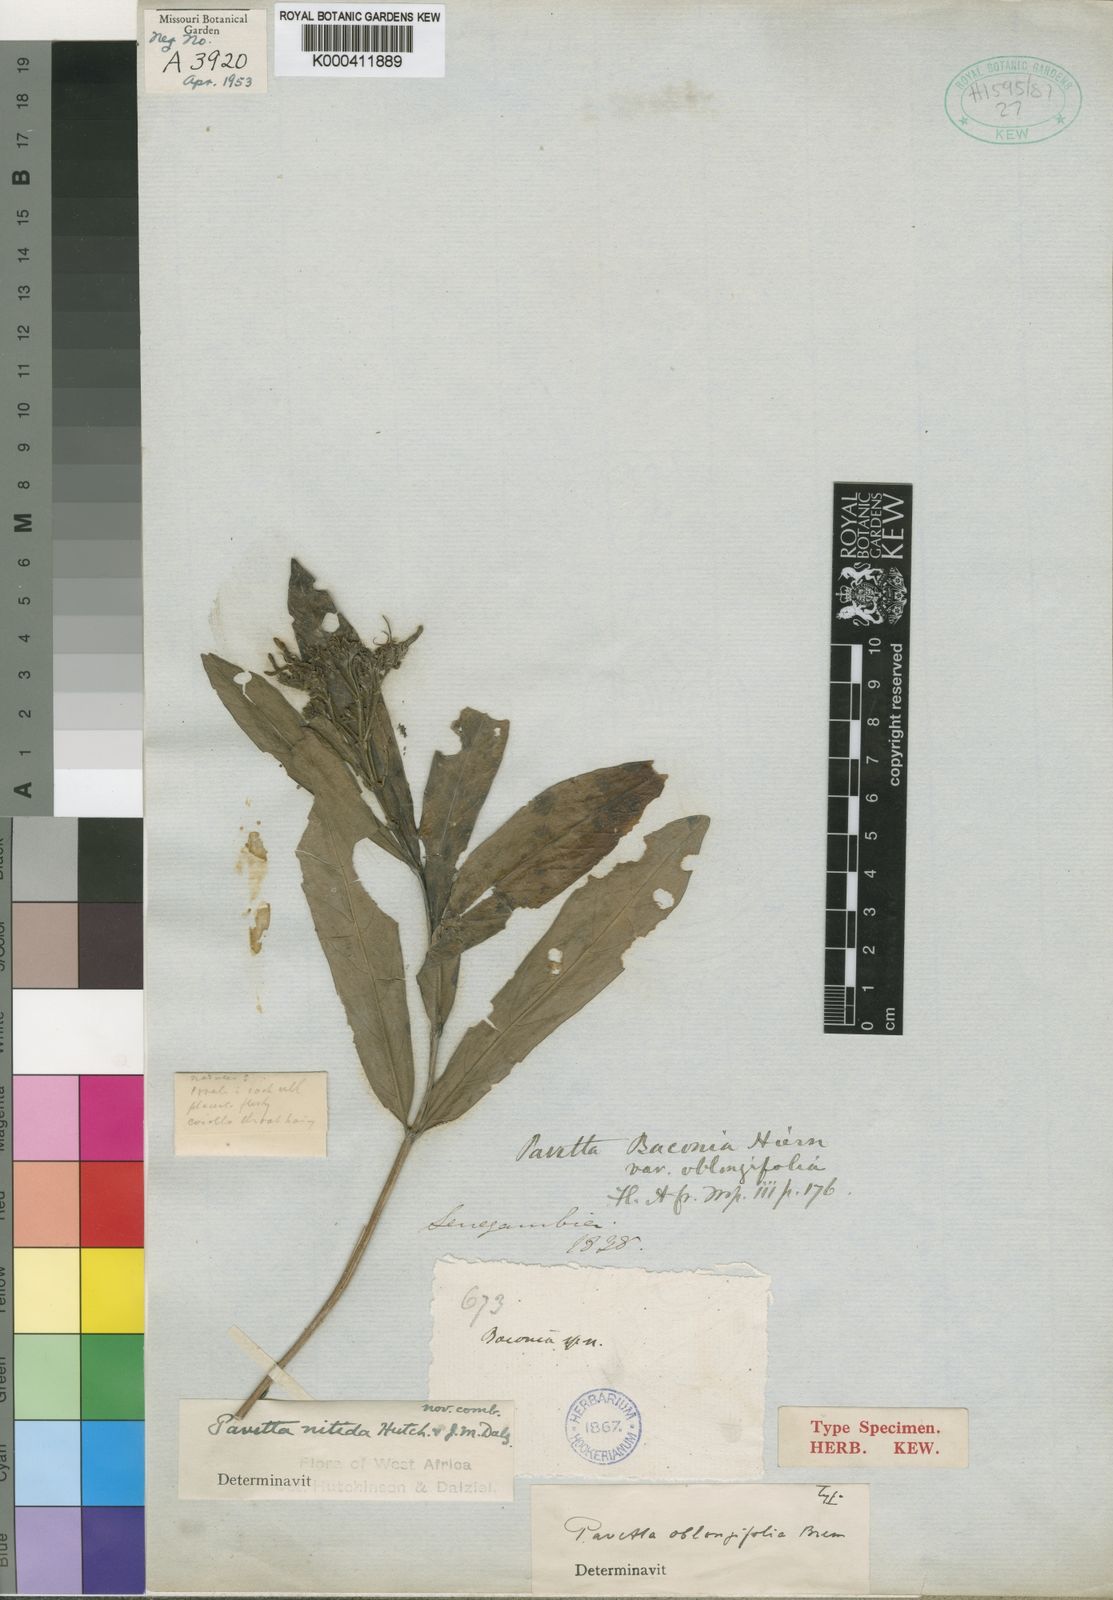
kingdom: Plantae
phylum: Tracheophyta
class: Magnoliopsida
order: Gentianales
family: Rubiaceae
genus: Pavetta
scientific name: Pavetta oblongifolia
